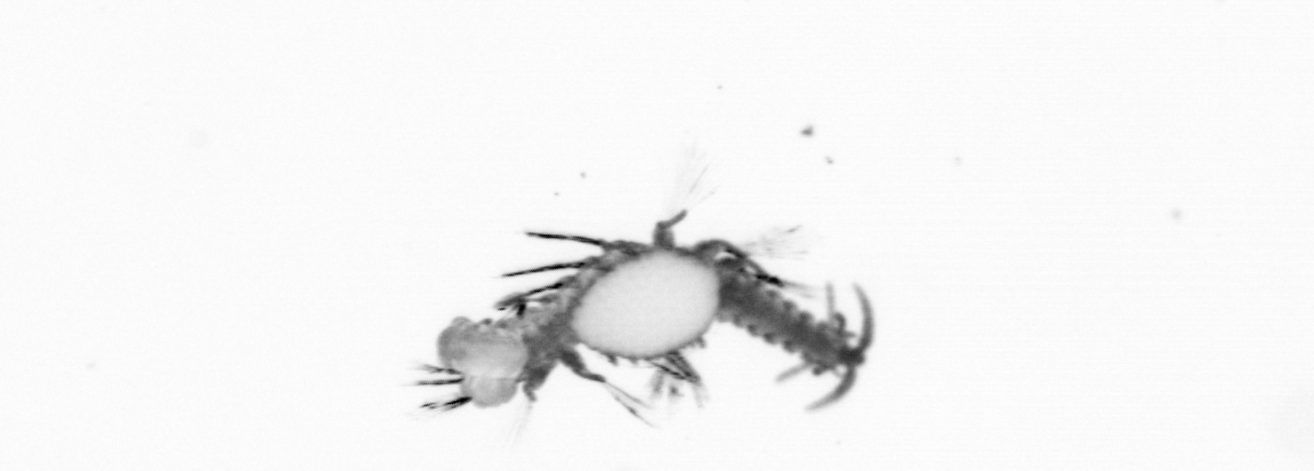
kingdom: Animalia
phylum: Annelida
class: Polychaeta
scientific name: Polychaeta
